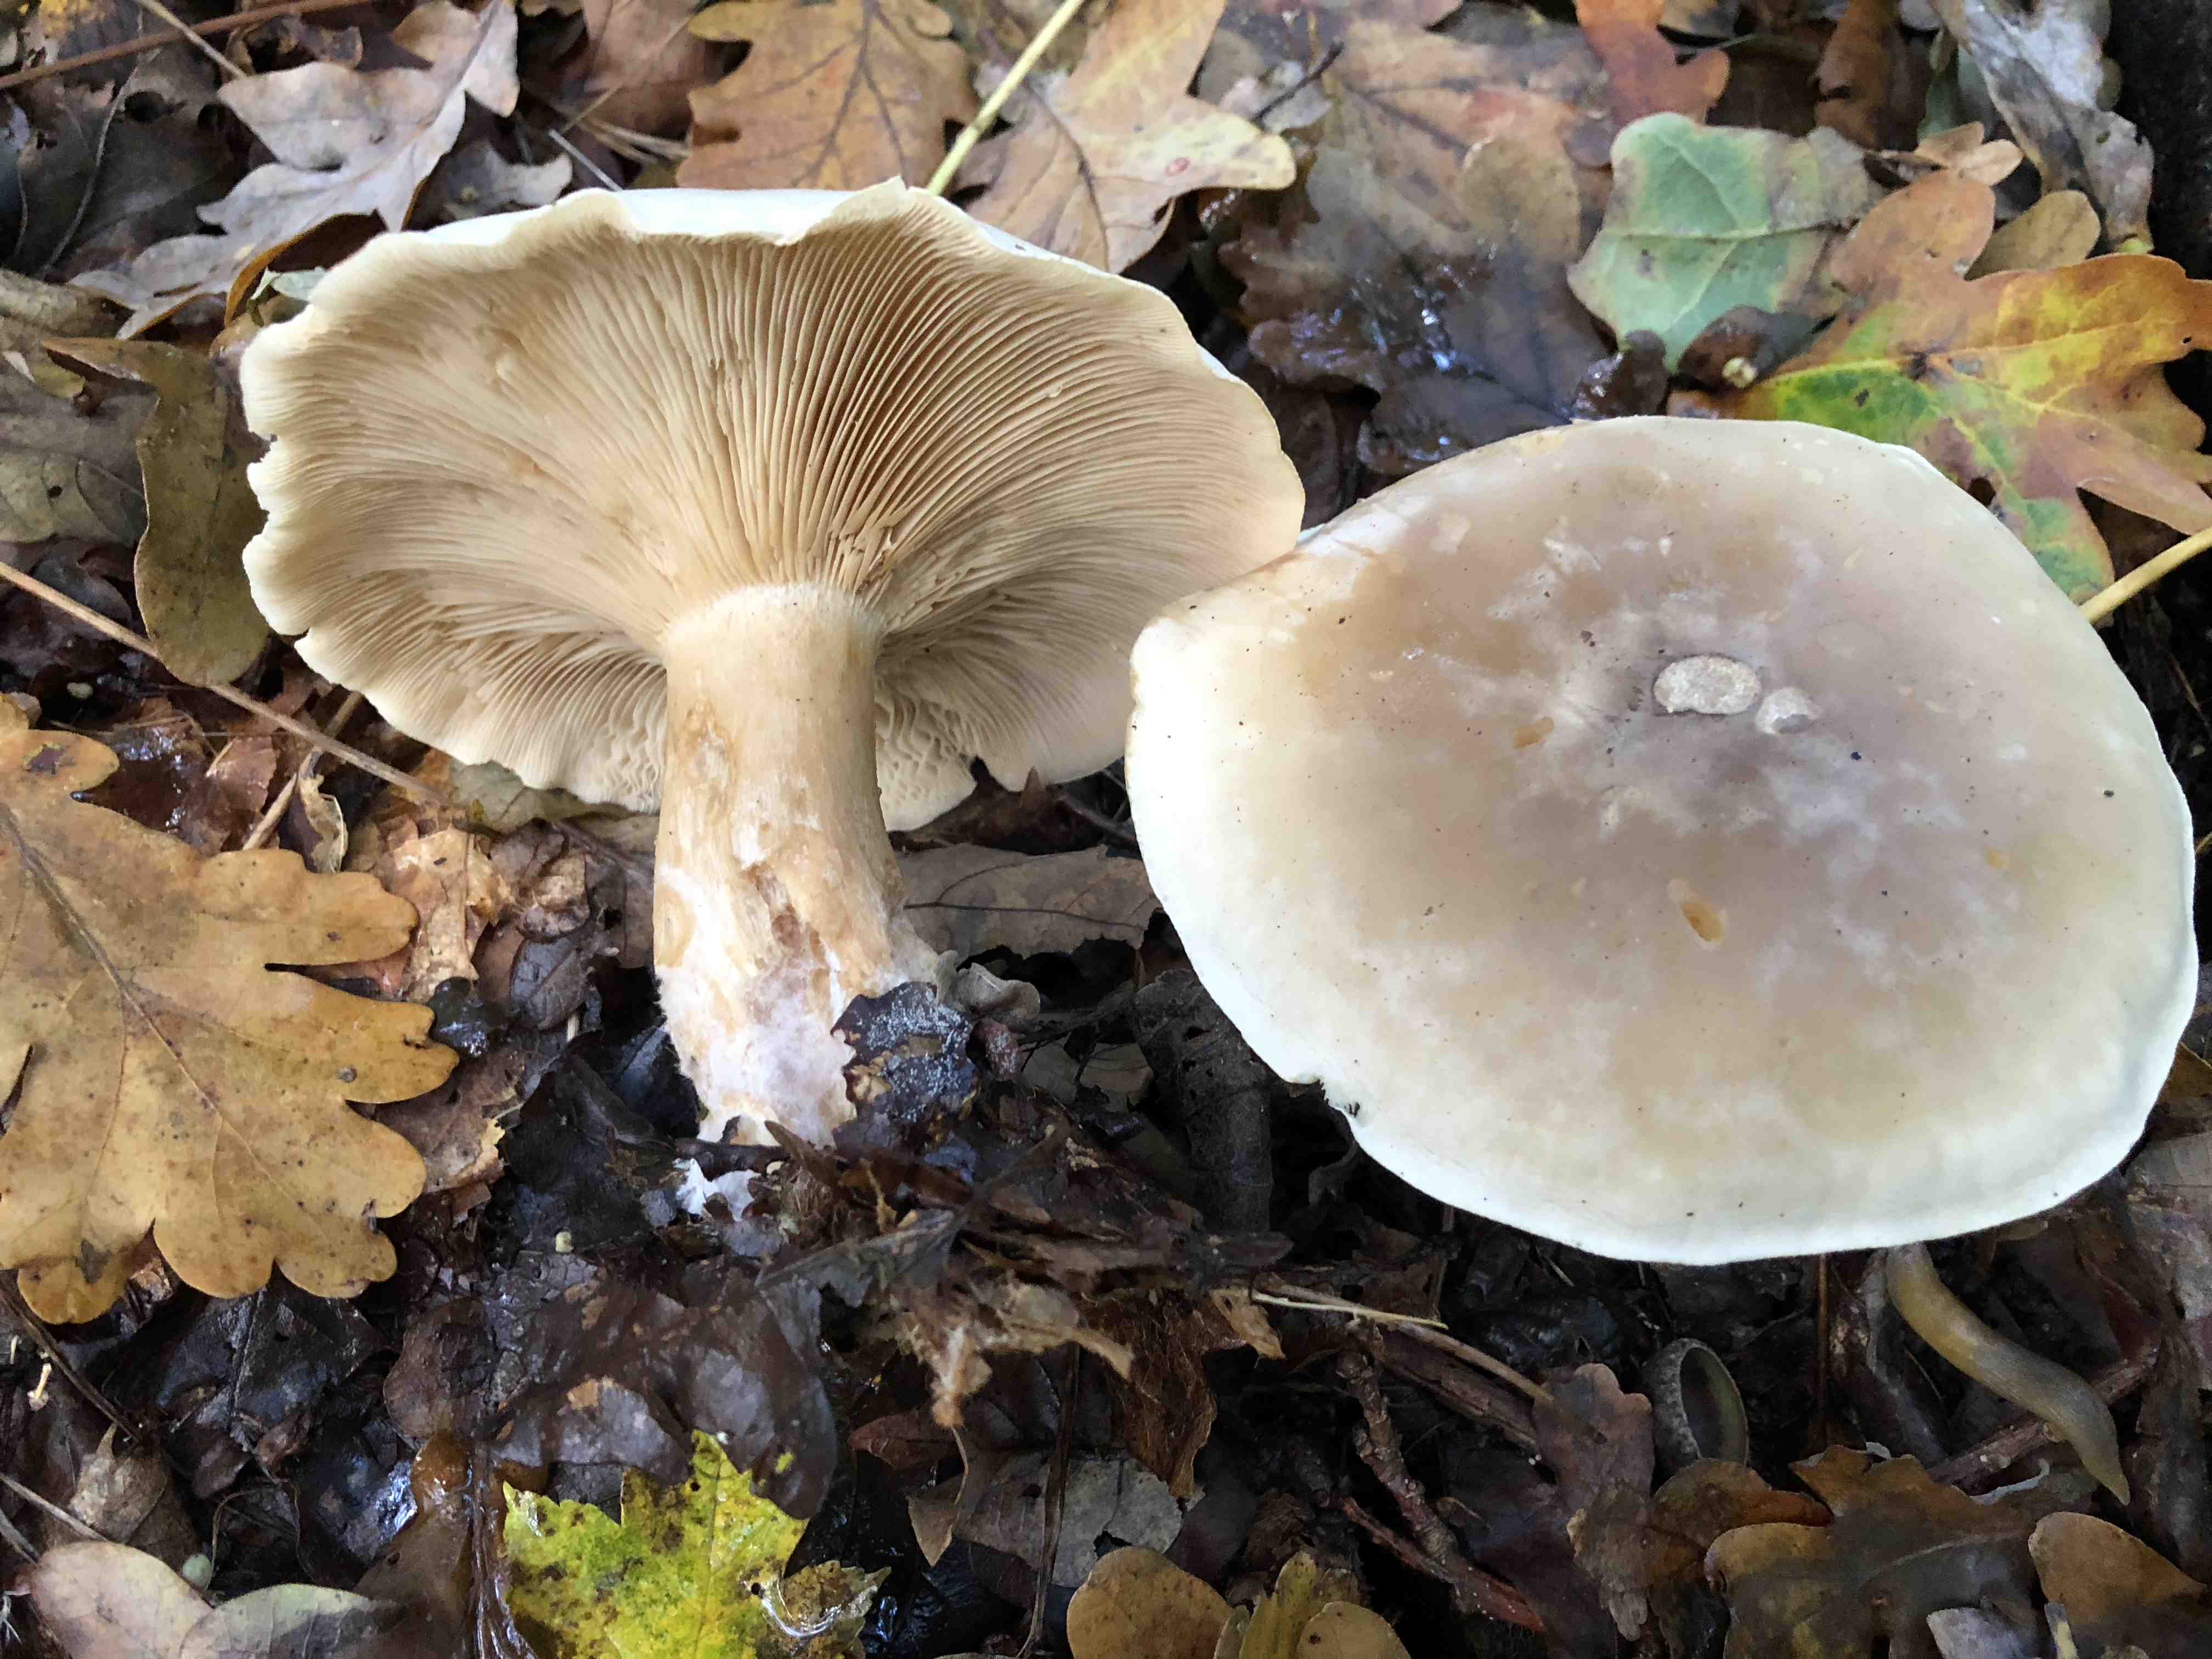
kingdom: Fungi
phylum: Basidiomycota
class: Agaricomycetes
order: Agaricales
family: Tricholomataceae
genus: Clitocybe
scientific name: Clitocybe nebularis
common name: tåge-tragthat
